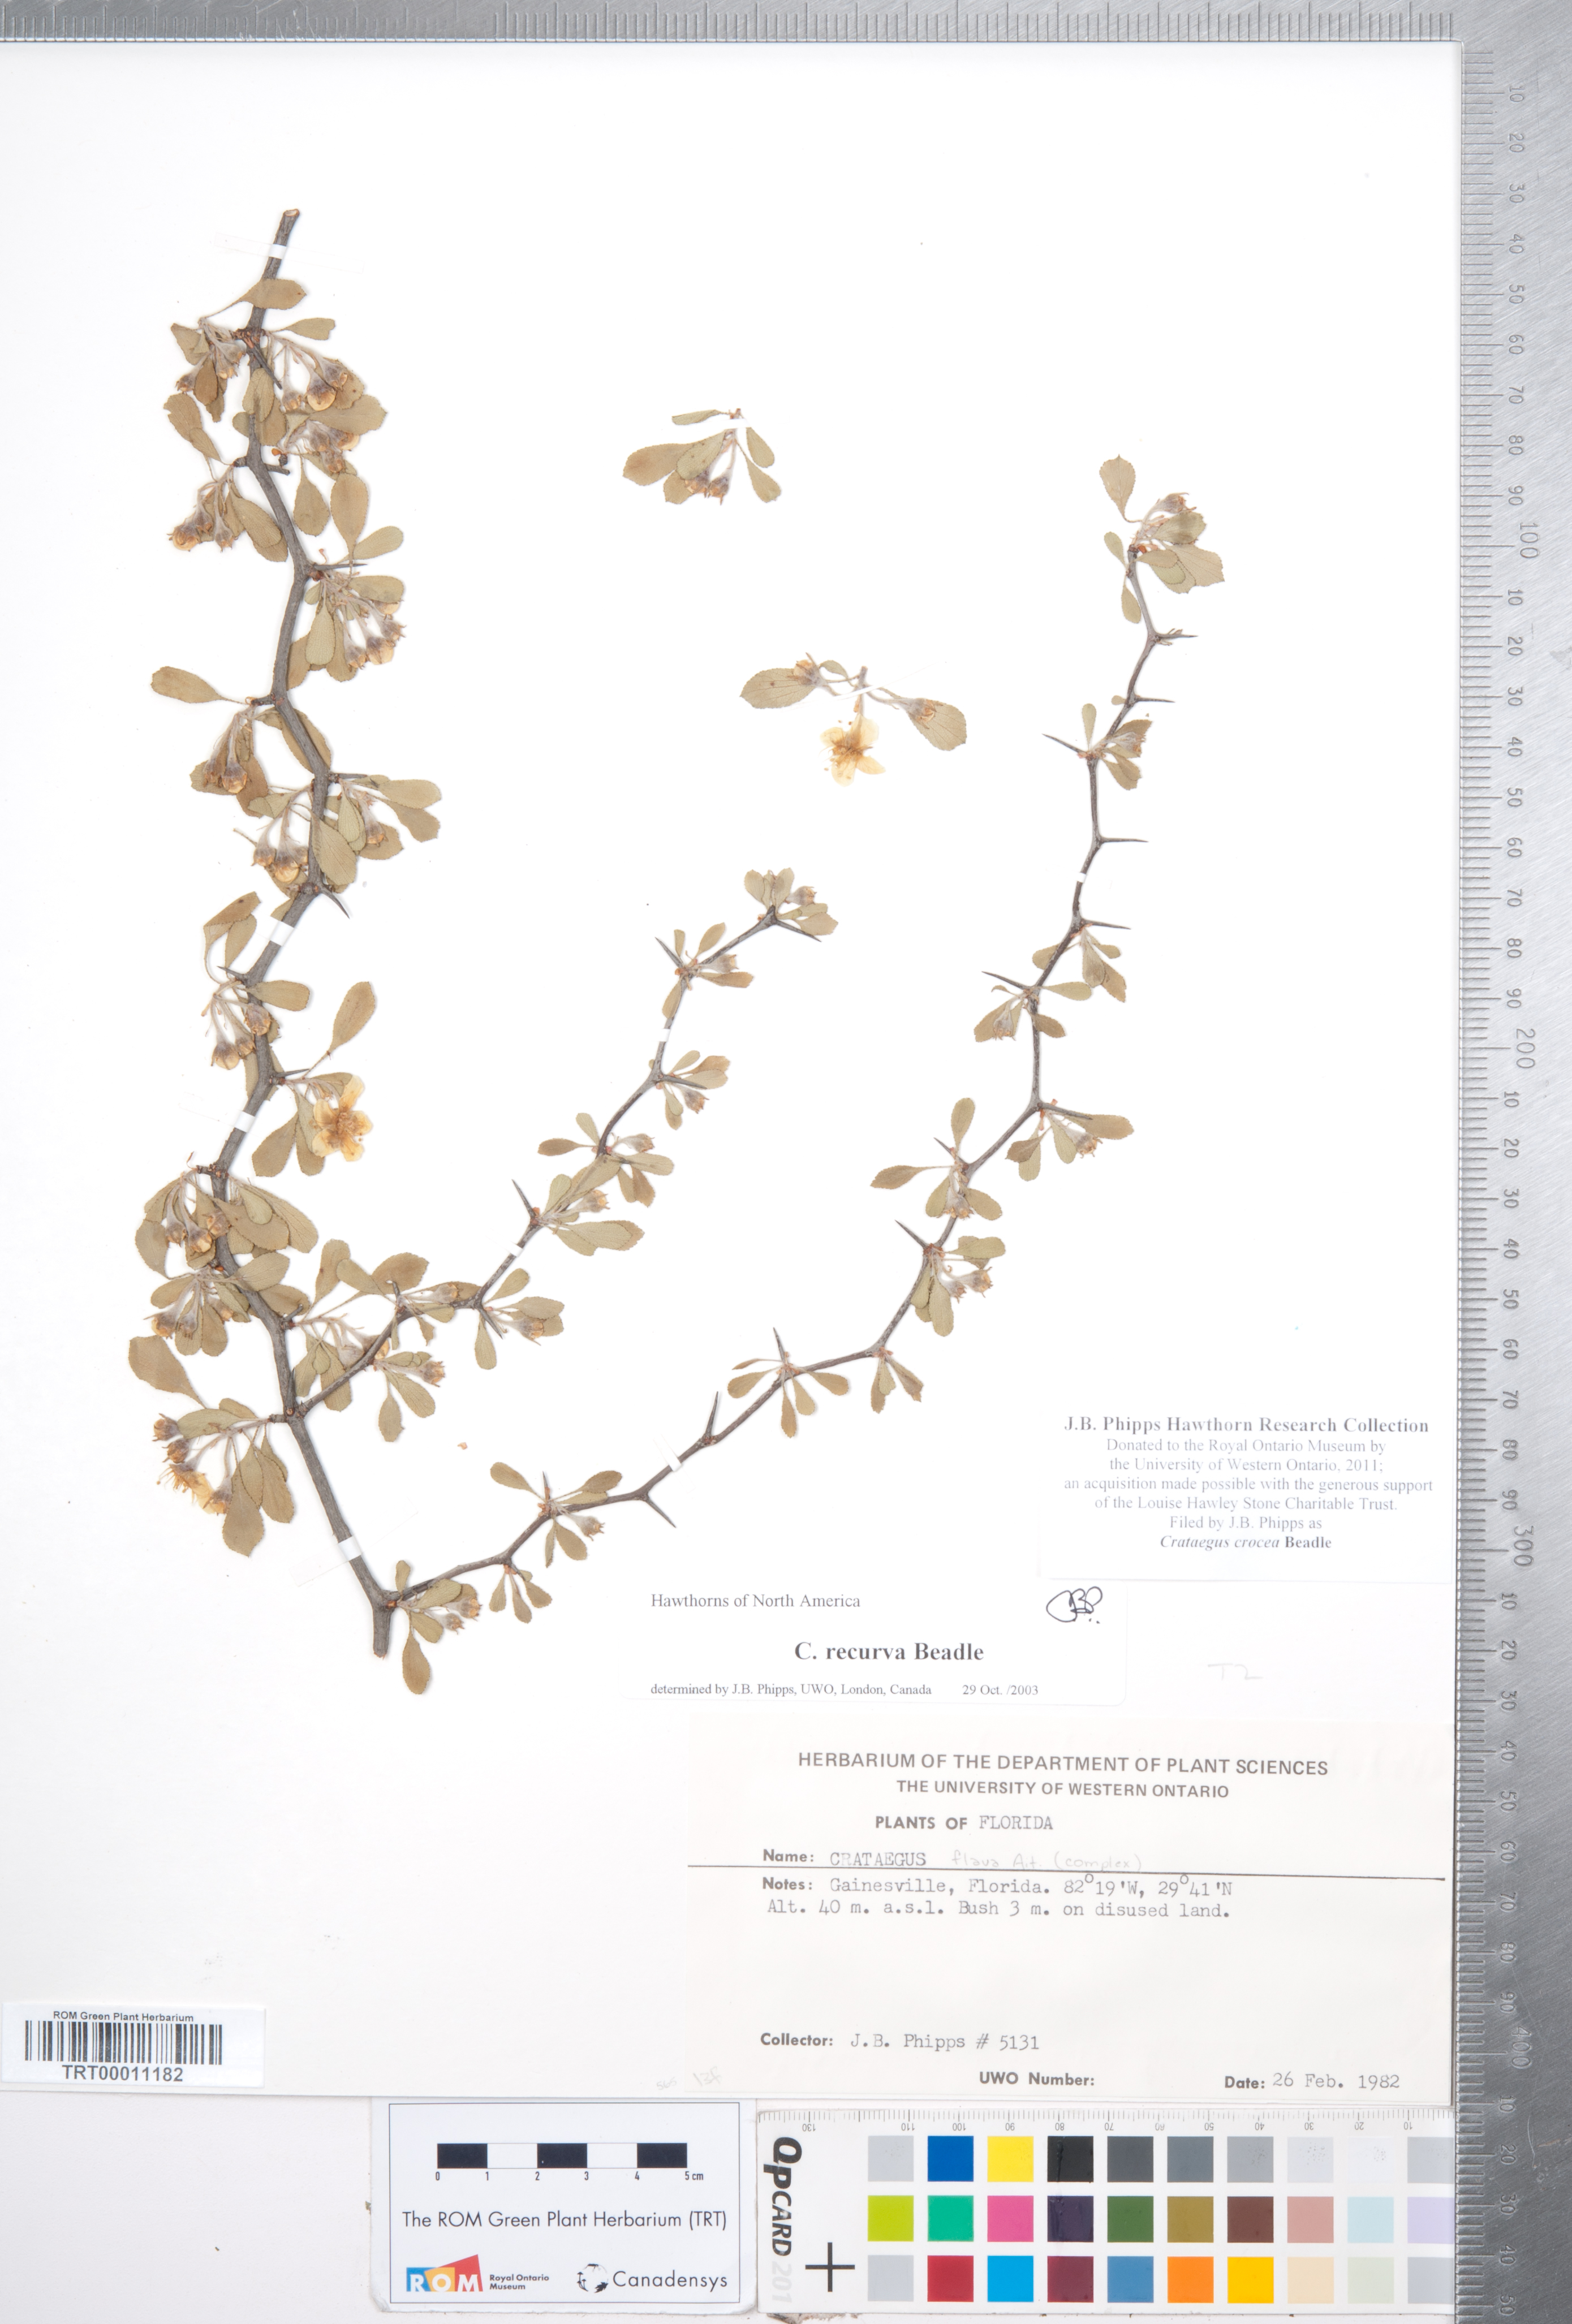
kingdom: Plantae
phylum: Tracheophyta
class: Magnoliopsida
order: Rosales
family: Rosaceae
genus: Crataegus
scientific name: Crataegus lassa
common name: Florida hawthorn
